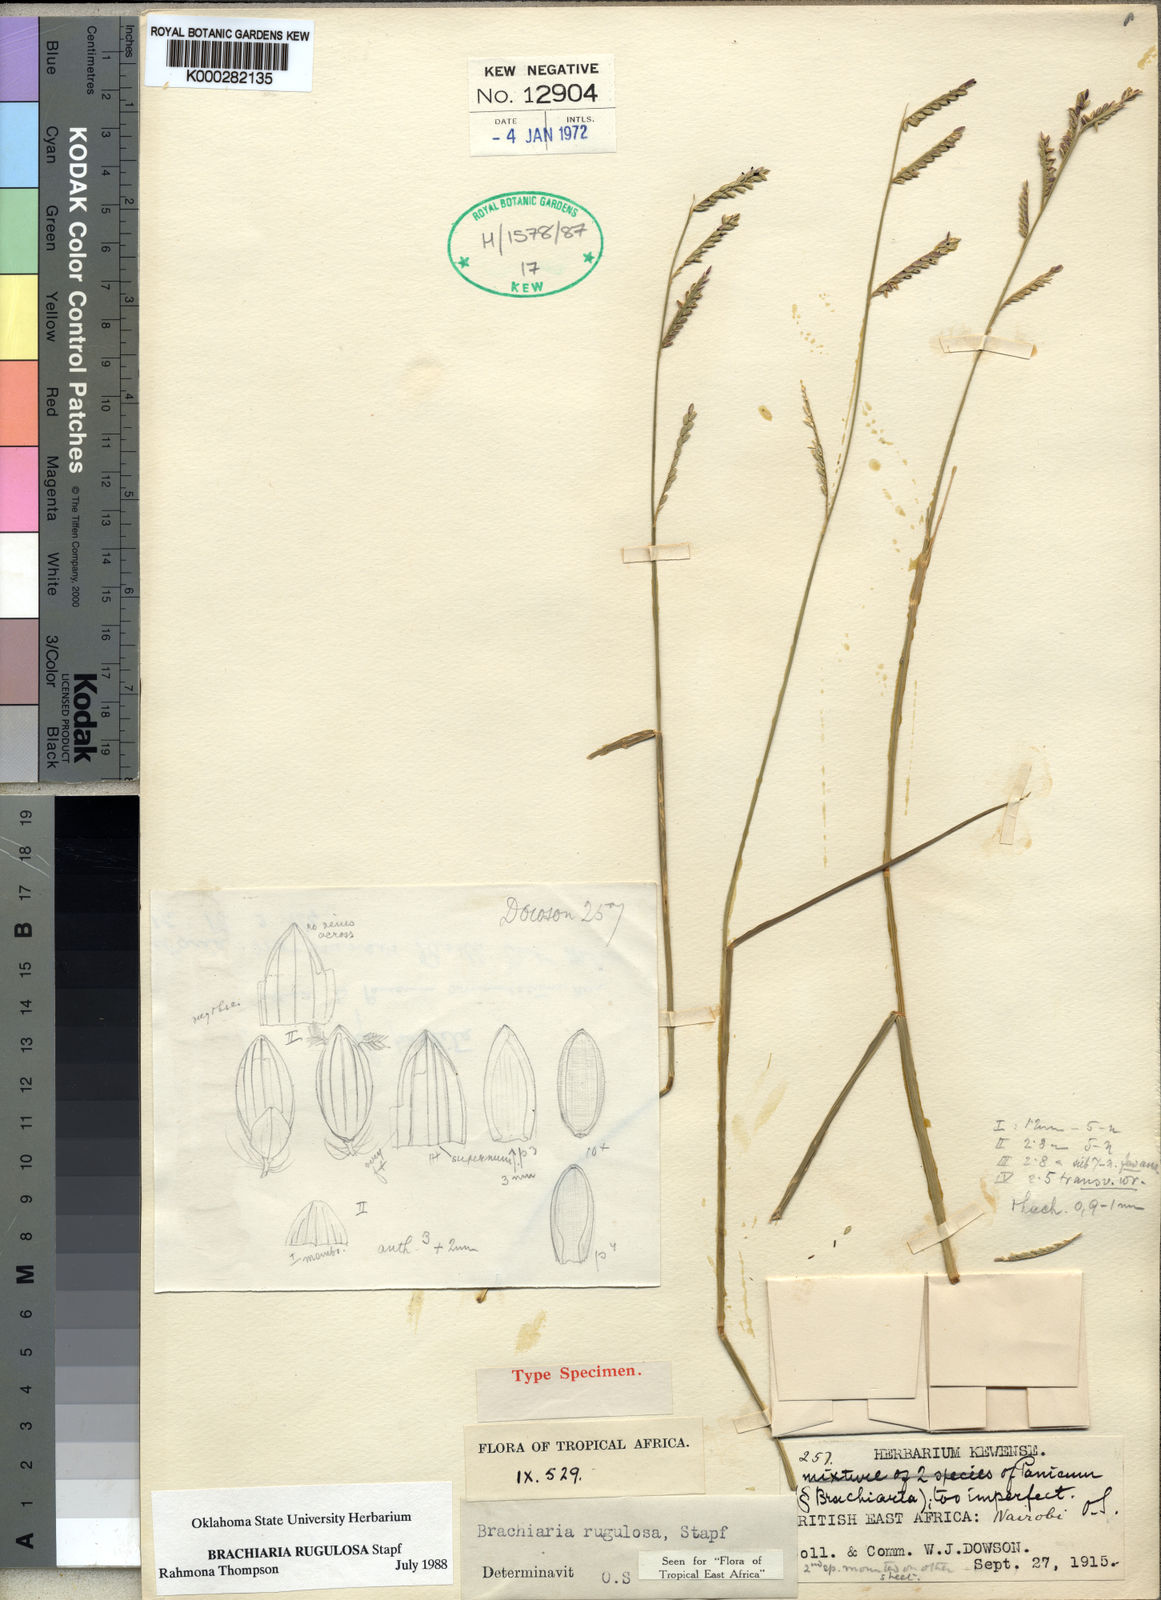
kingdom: Plantae
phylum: Tracheophyta
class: Liliopsida
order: Poales
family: Poaceae
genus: Urochloa
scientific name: Urochloa rugulosa
